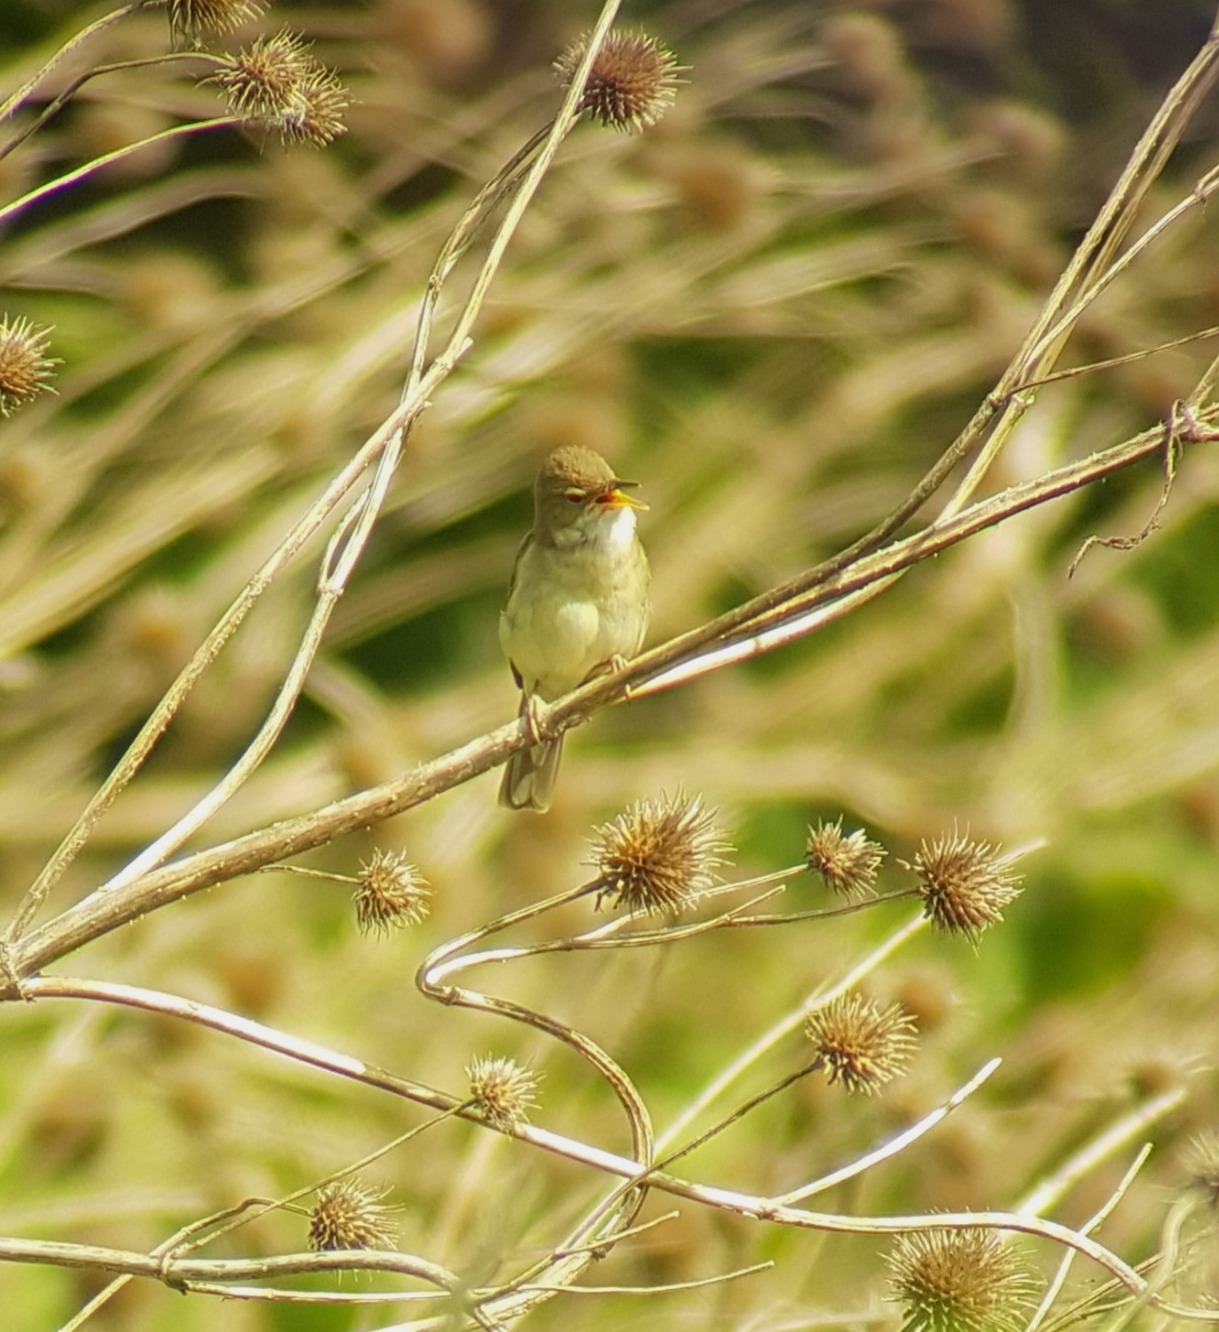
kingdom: Animalia
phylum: Chordata
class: Aves
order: Passeriformes
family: Acrocephalidae
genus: Acrocephalus
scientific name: Acrocephalus dumetorum
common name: Buskrørsanger
